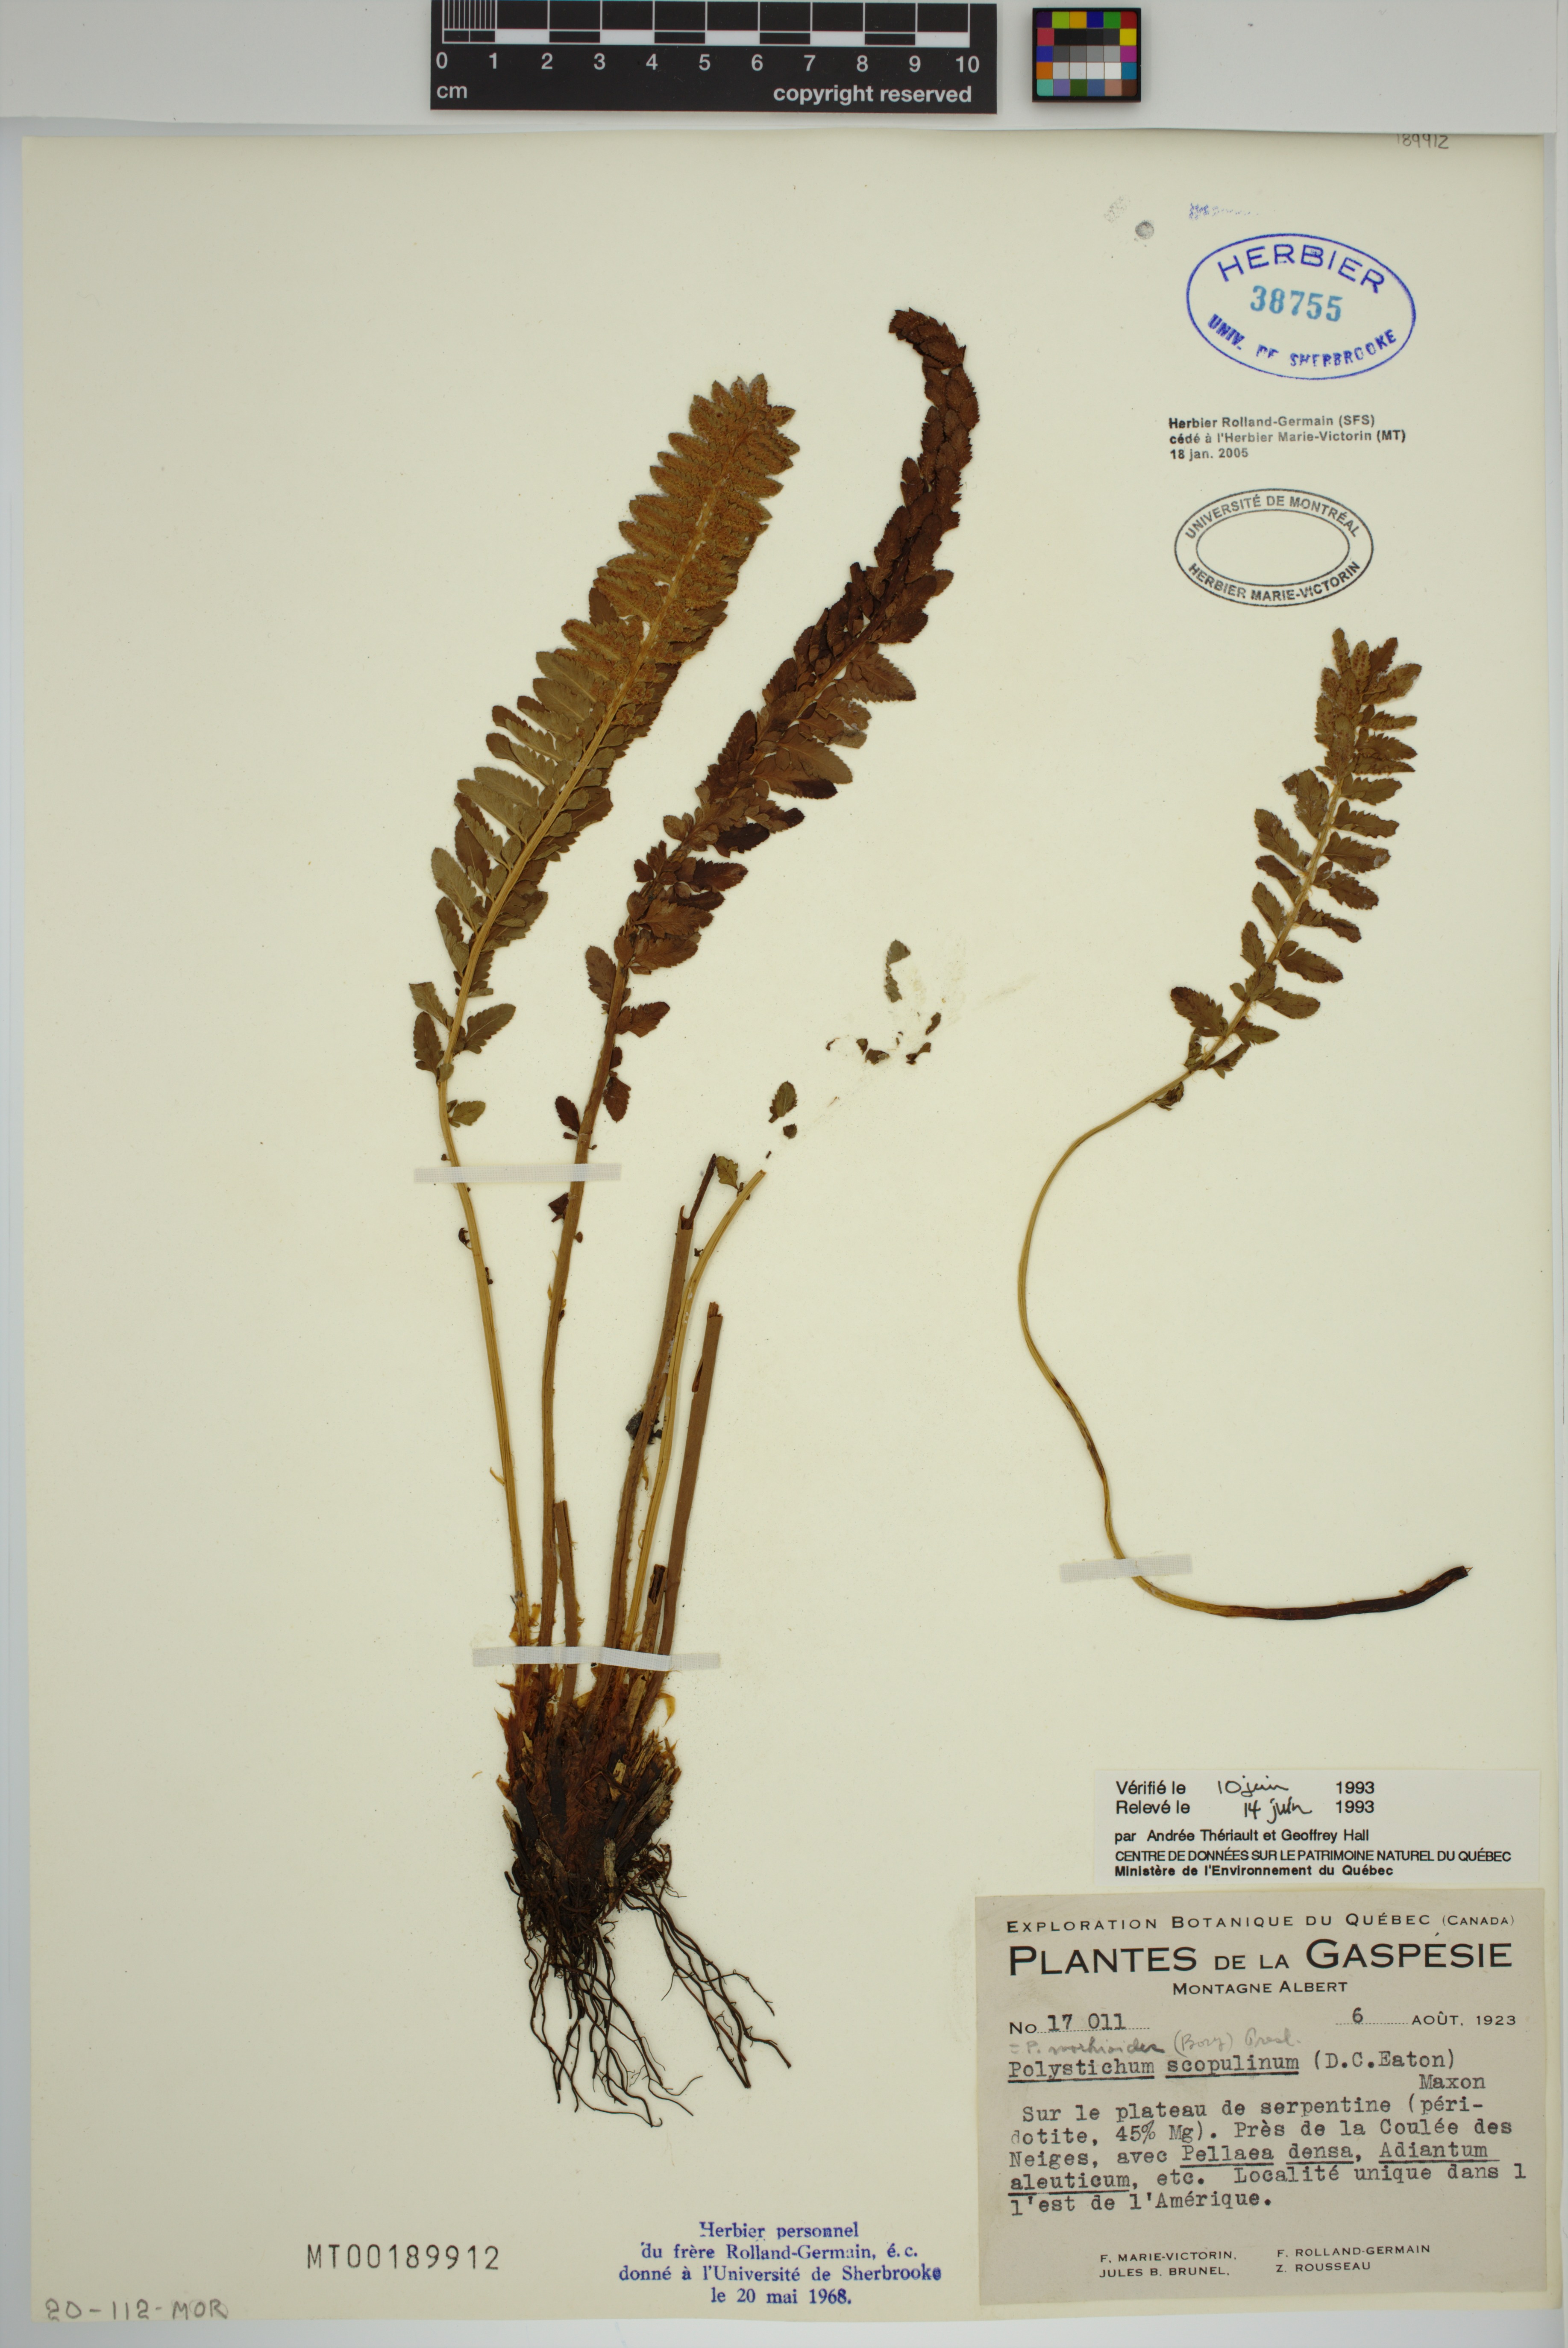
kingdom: Plantae
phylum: Tracheophyta
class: Polypodiopsida
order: Polypodiales
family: Dryopteridaceae
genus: Polystichum
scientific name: Polystichum scopulinum
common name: Eaton's shield fern
